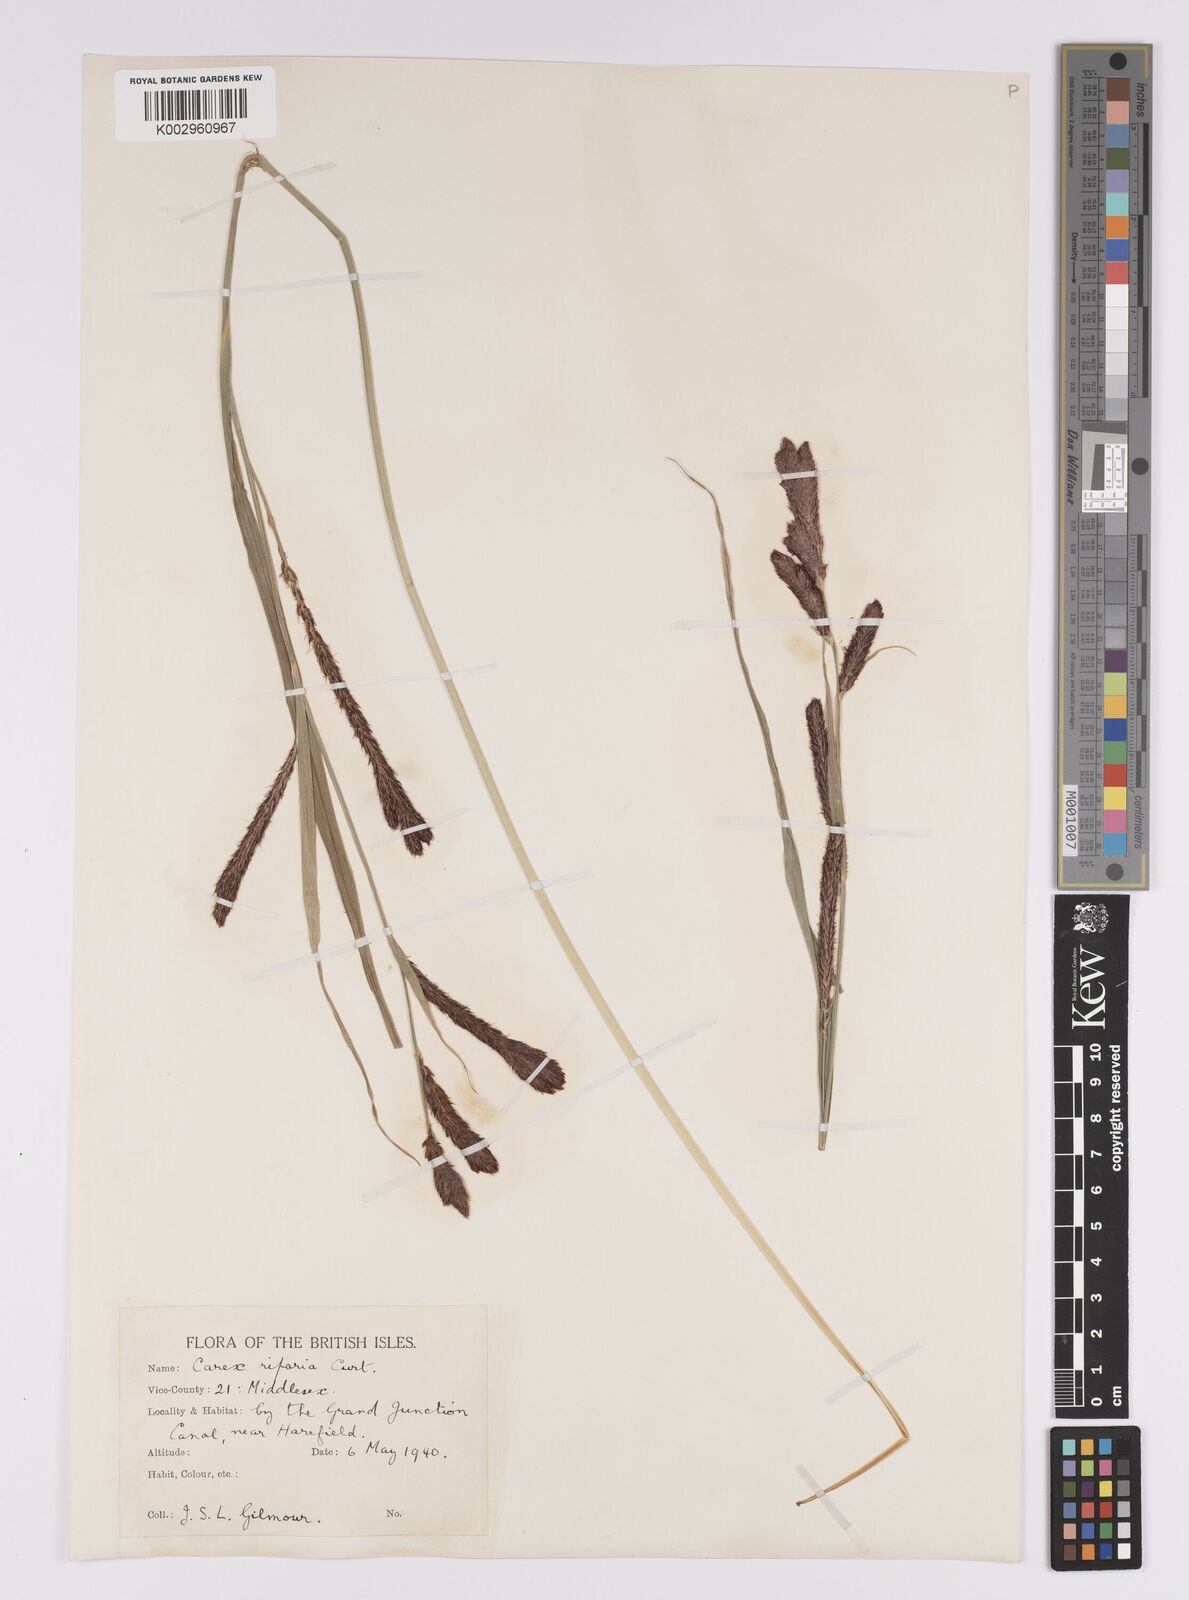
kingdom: Plantae
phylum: Tracheophyta
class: Liliopsida
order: Poales
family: Cyperaceae
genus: Carex
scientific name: Carex riparia
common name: Greater pond-sedge
